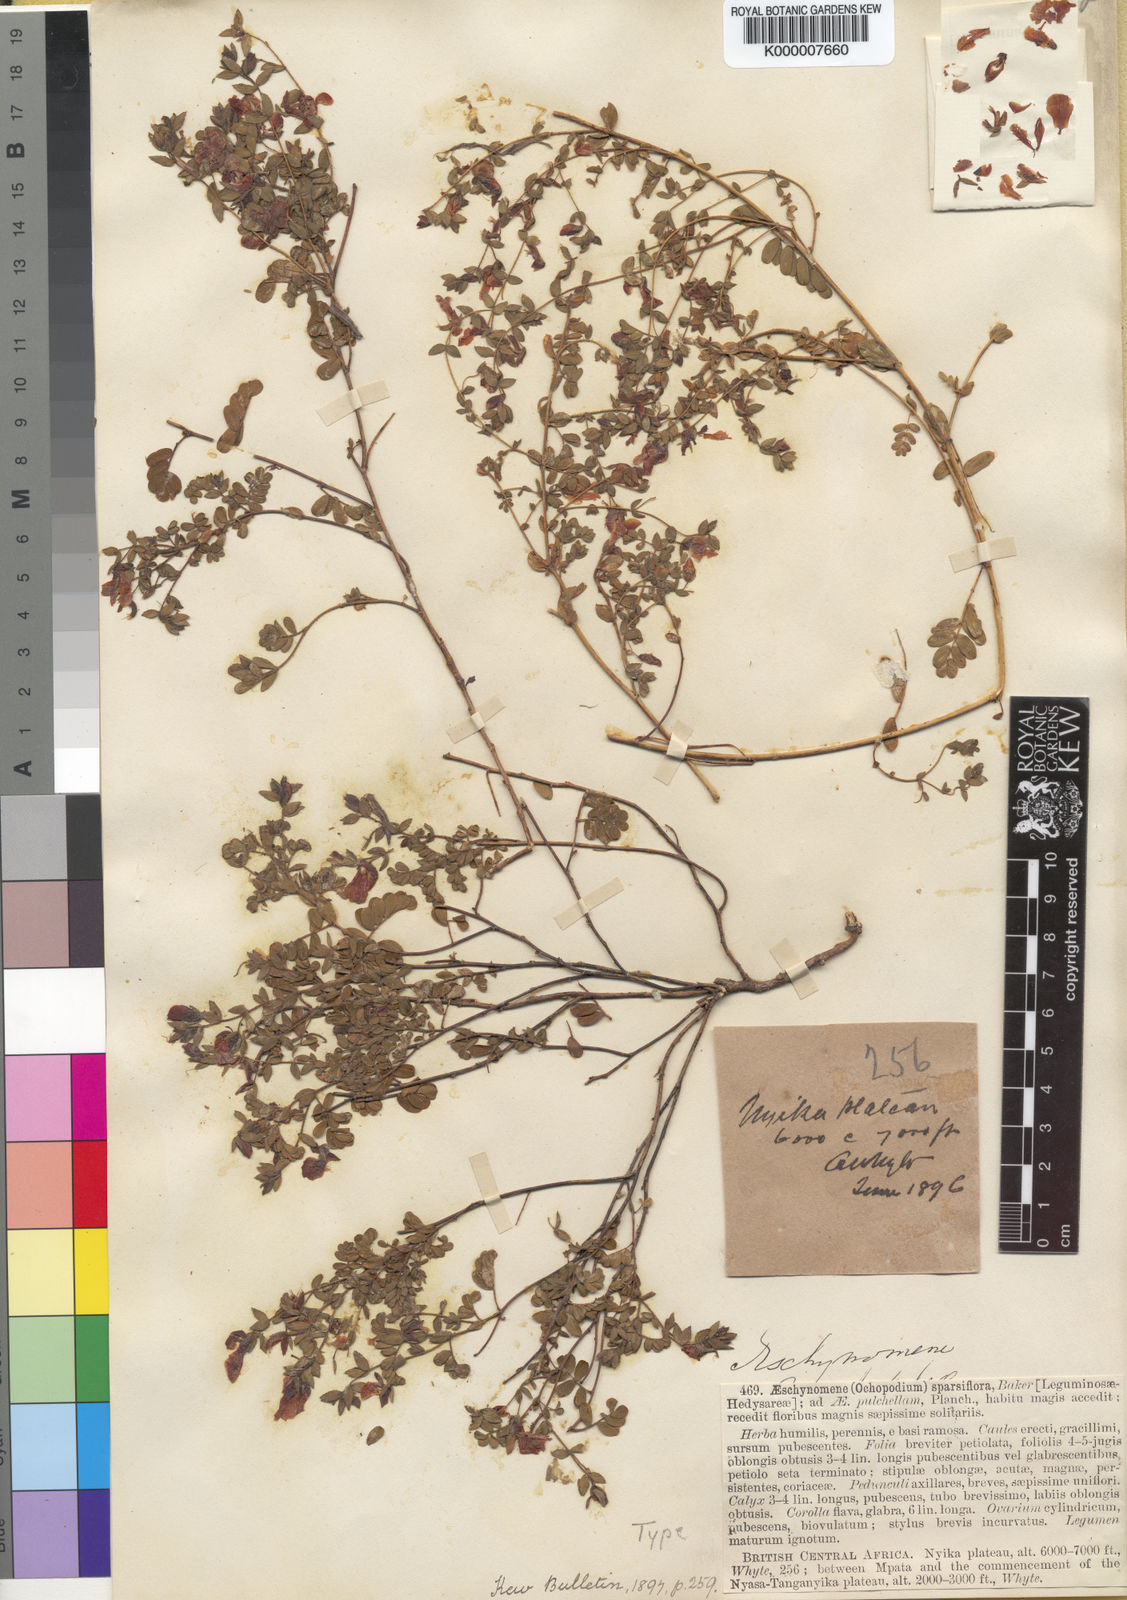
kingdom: Plantae
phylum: Tracheophyta
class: Magnoliopsida
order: Fabales
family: Fabaceae
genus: Aeschynomene
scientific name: Aeschynomene sparsiflora
